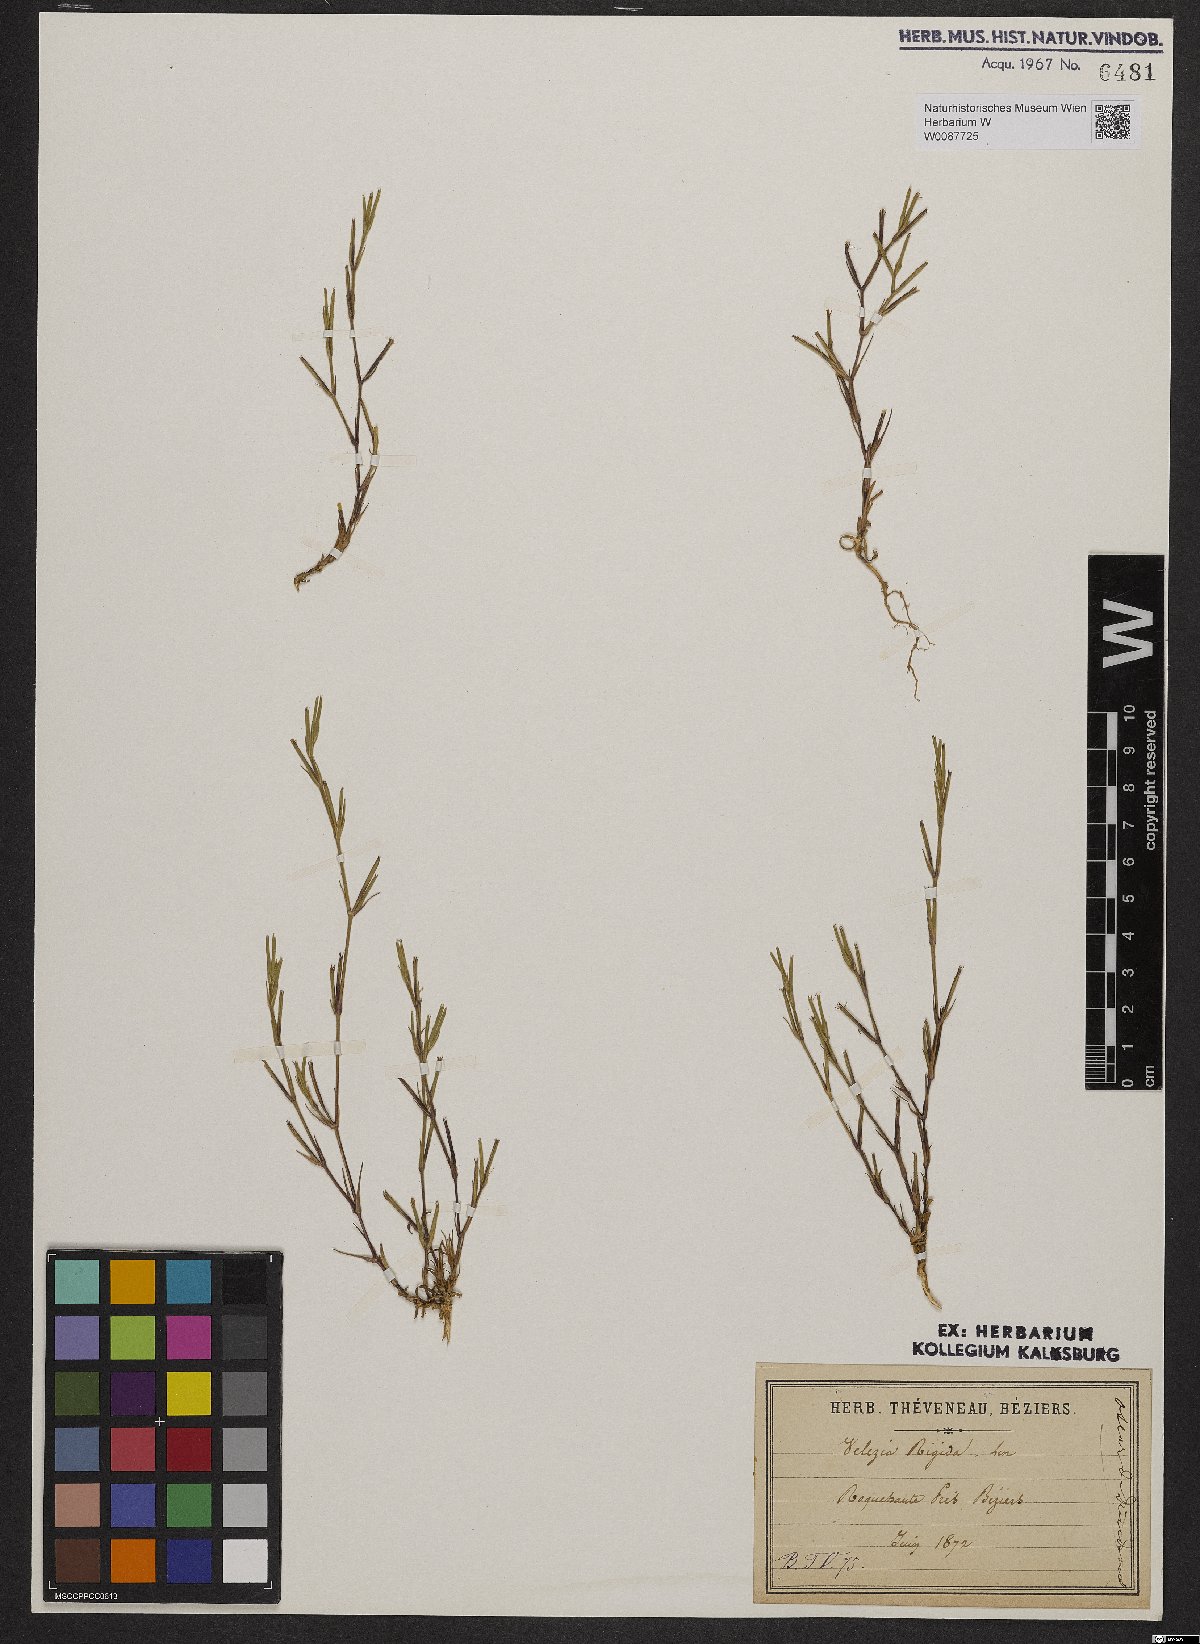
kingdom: Plantae
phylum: Tracheophyta
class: Magnoliopsida
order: Caryophyllales
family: Caryophyllaceae
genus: Dianthus
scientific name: Dianthus nudiflorus
